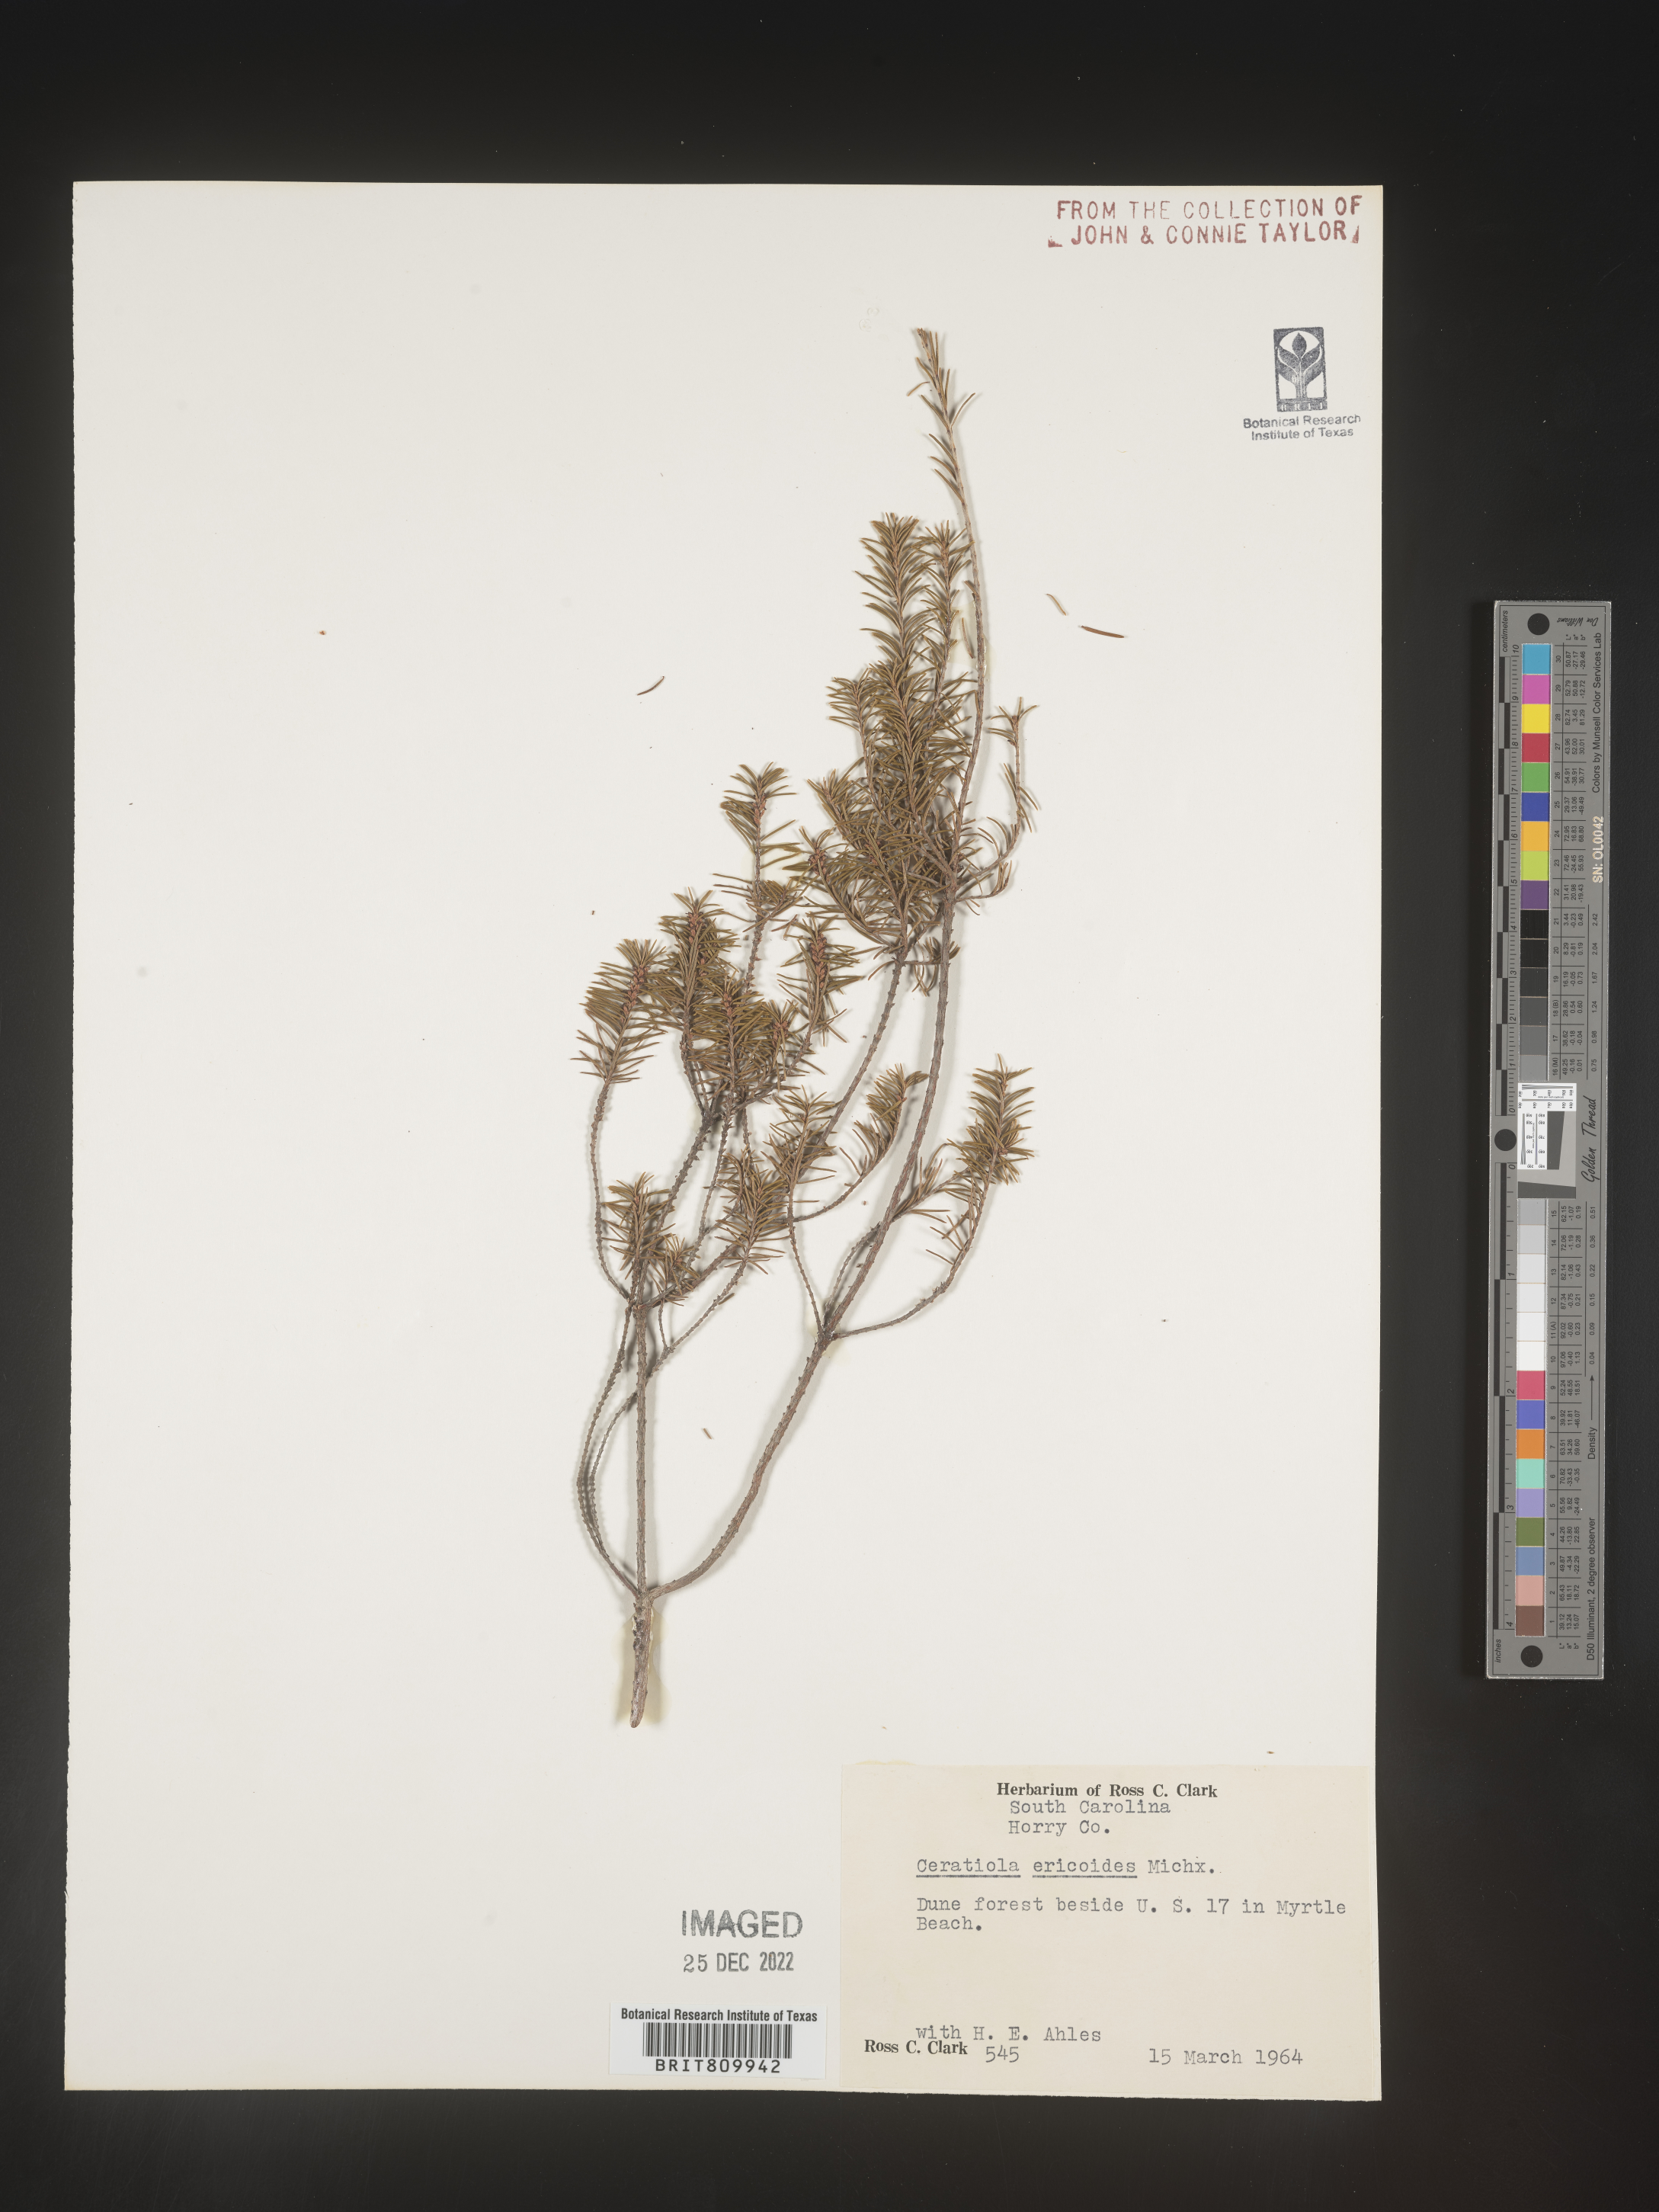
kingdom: Plantae
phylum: Tracheophyta
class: Magnoliopsida
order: Ericales
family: Ericaceae
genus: Ceratiola
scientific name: Ceratiola ericoides
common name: Sandhill-rosemary
